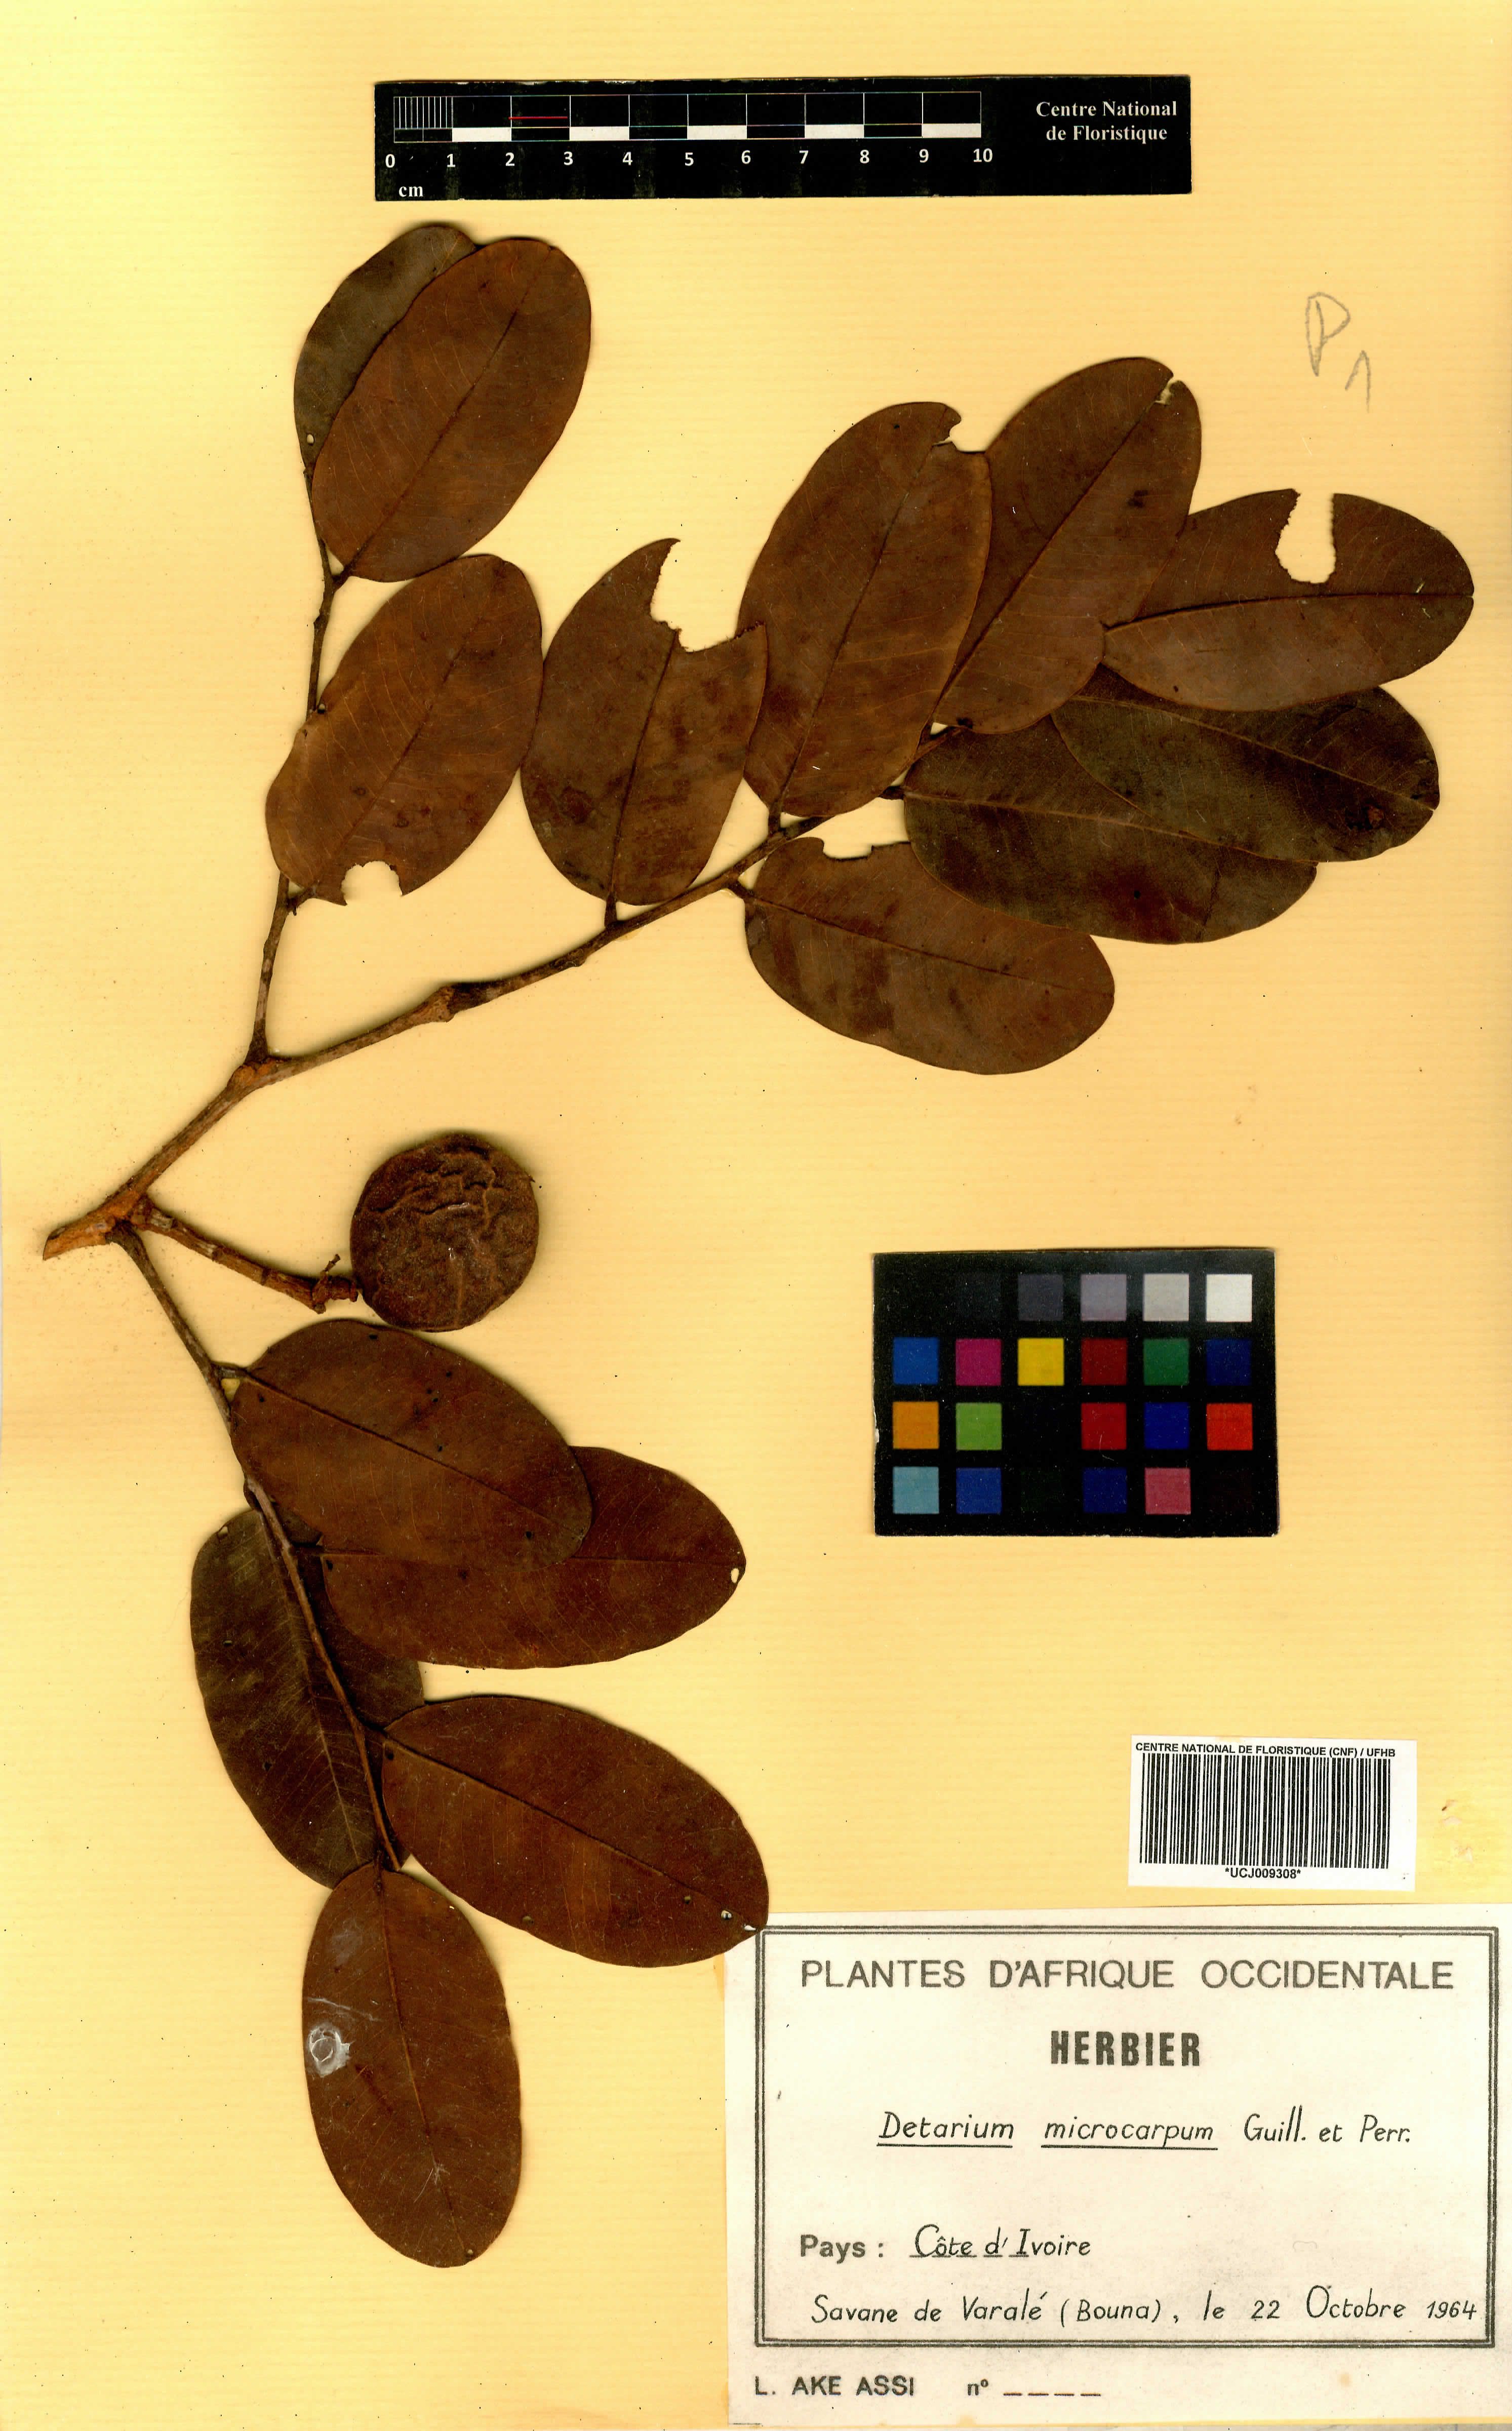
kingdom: Plantae
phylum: Tracheophyta
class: Magnoliopsida
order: Fabales
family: Fabaceae
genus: Detarium
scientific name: Detarium microcarpum
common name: Sweet dattock
